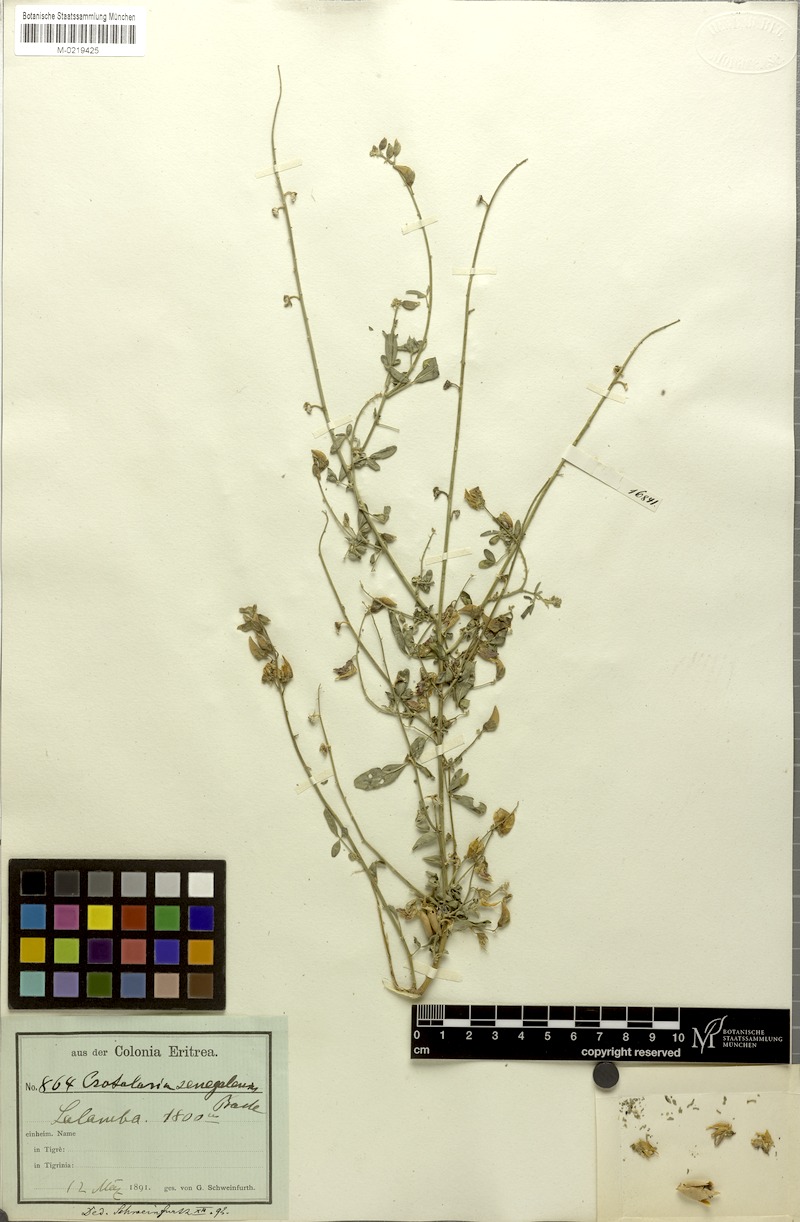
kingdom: Plantae
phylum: Tracheophyta
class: Magnoliopsida
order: Fabales
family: Fabaceae
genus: Crotalaria
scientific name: Crotalaria senegalensis
